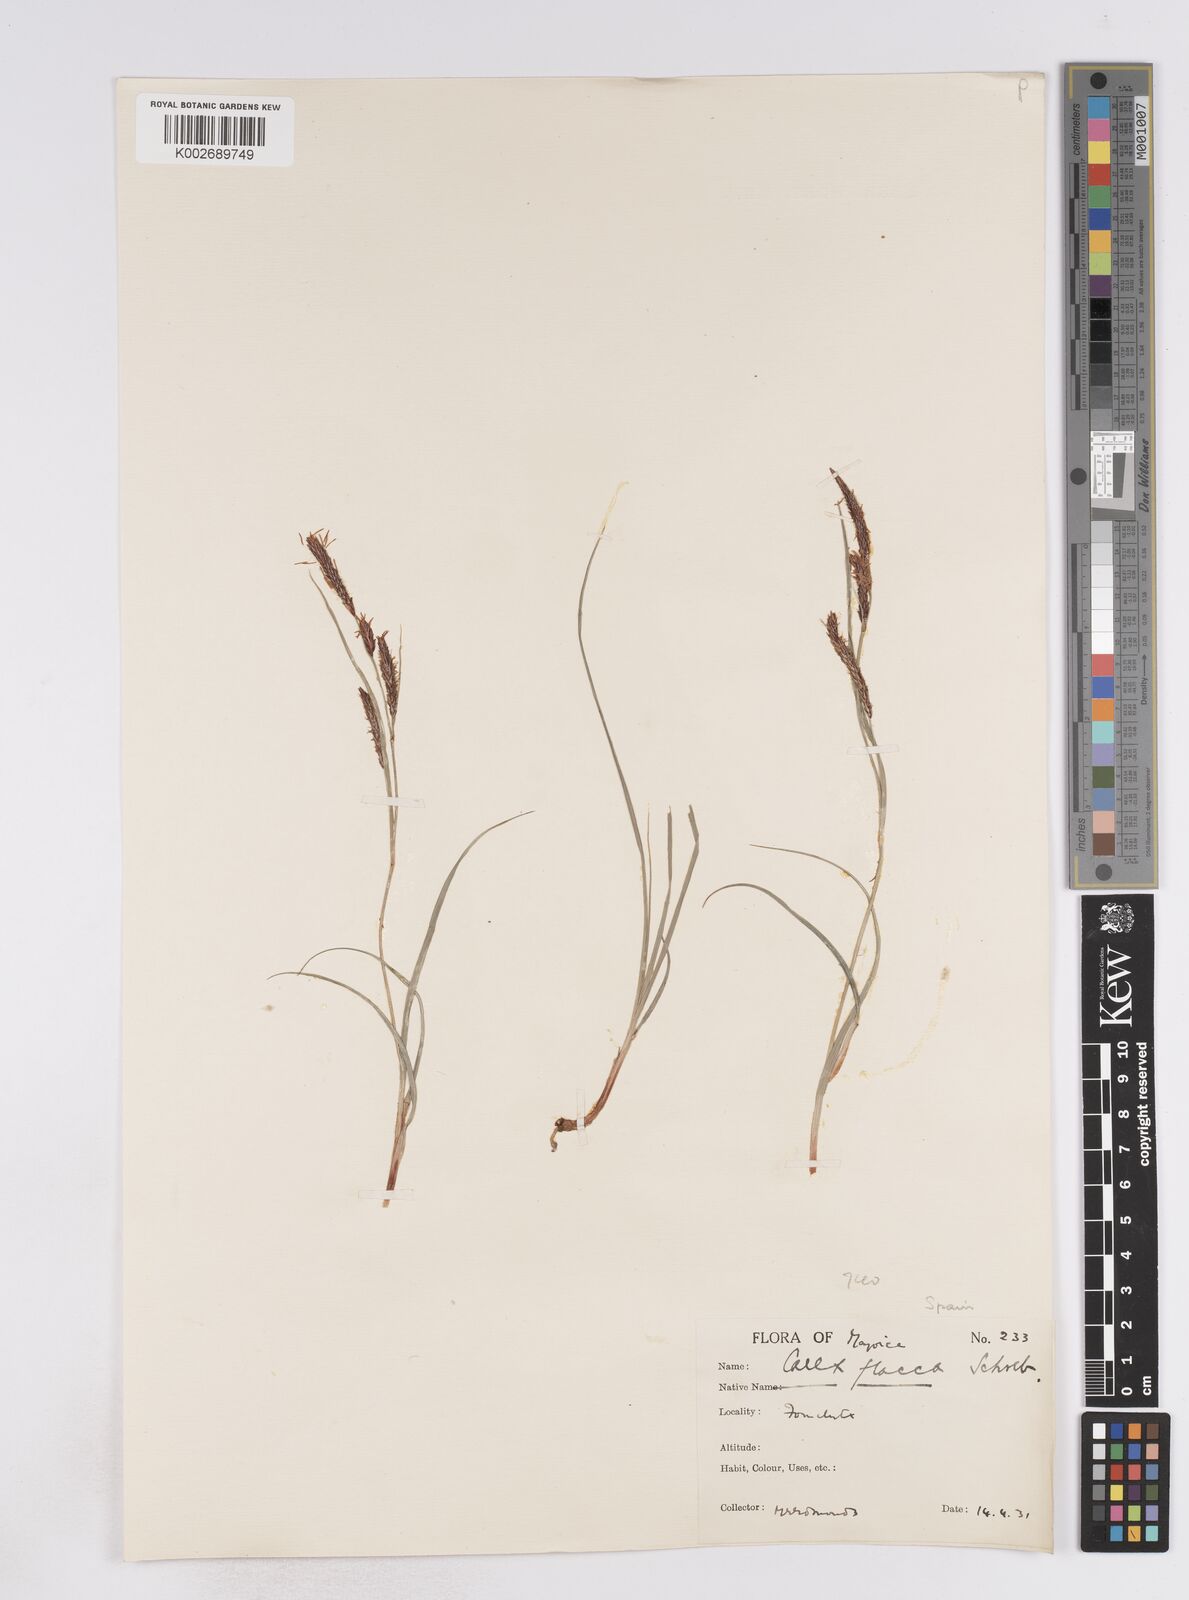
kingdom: Plantae
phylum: Tracheophyta
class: Liliopsida
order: Poales
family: Cyperaceae
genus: Carex
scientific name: Carex flacca
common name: Glaucous sedge
